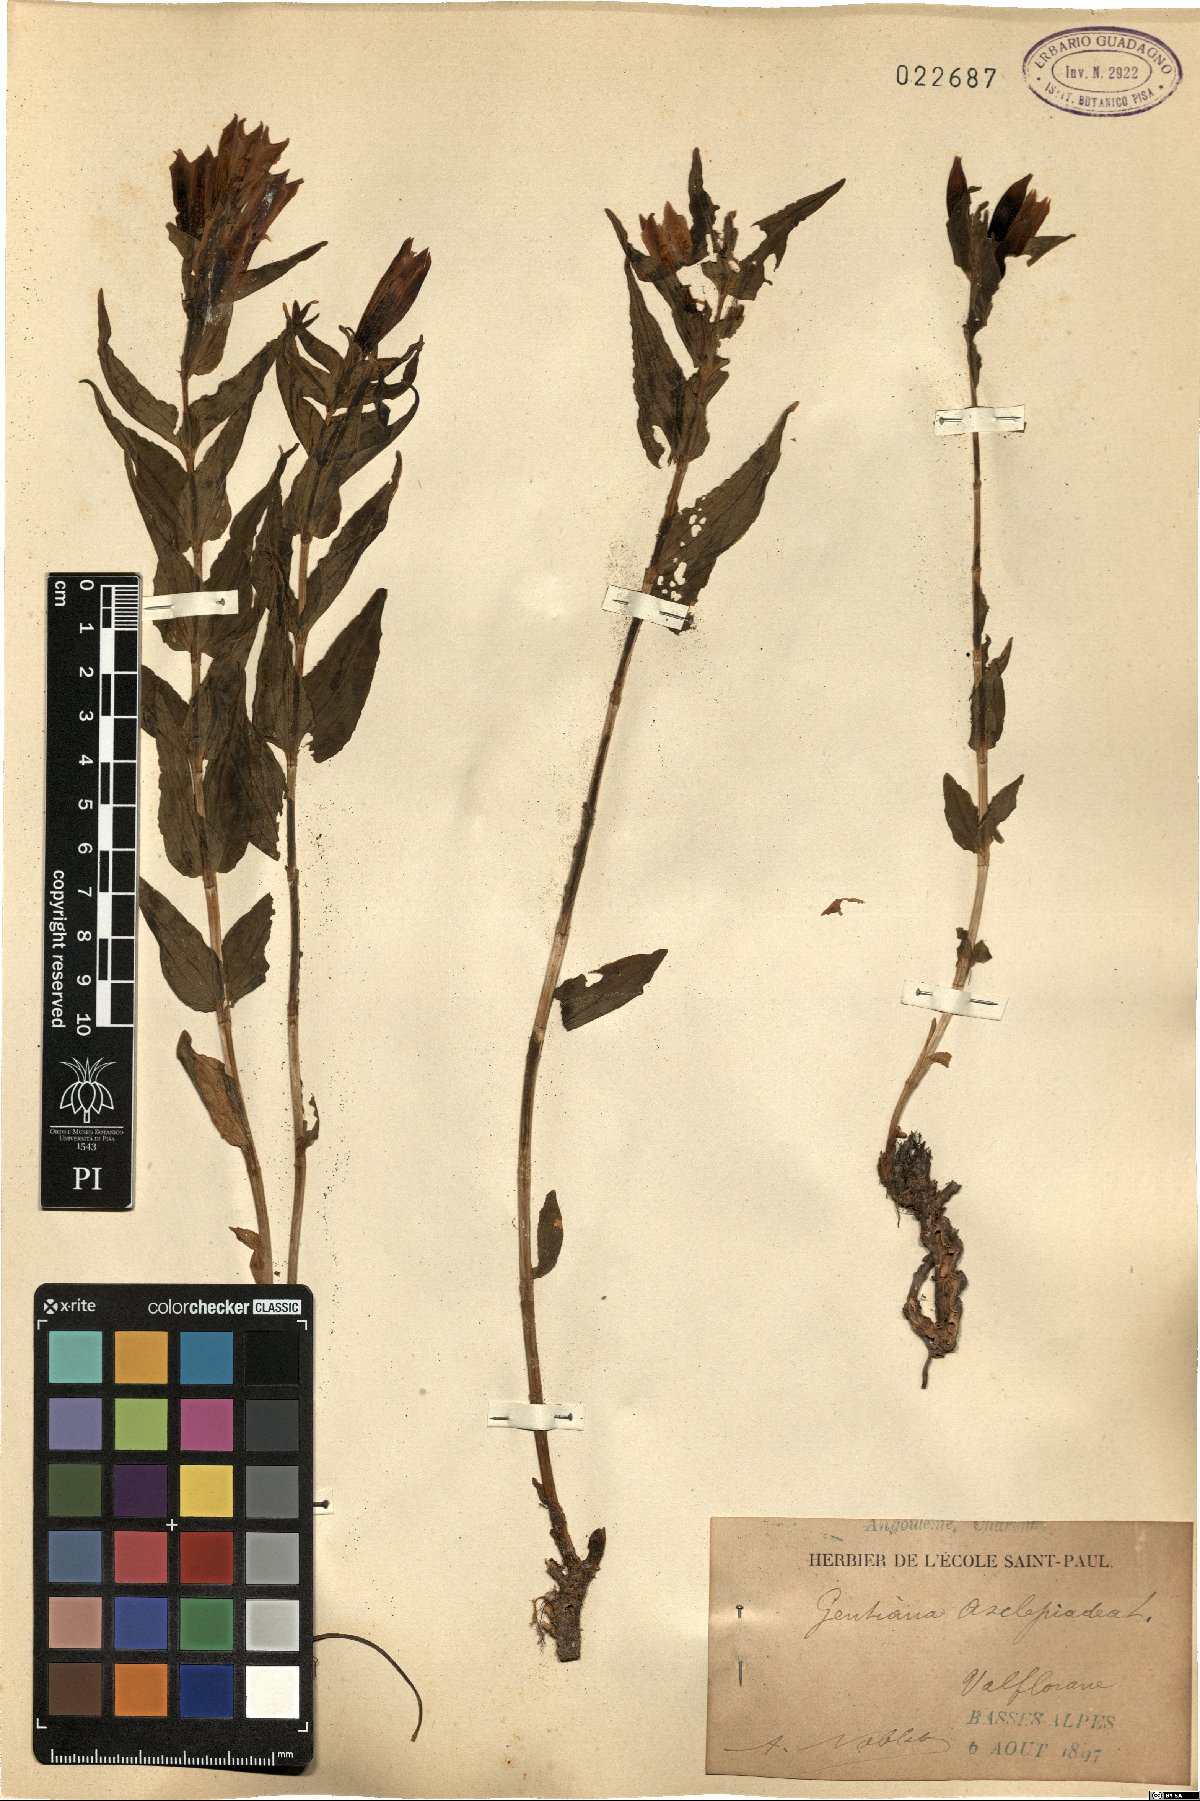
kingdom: Plantae
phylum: Tracheophyta
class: Magnoliopsida
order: Gentianales
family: Gentianaceae
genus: Gentiana
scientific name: Gentiana asclepiadea
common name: Willow gentian
